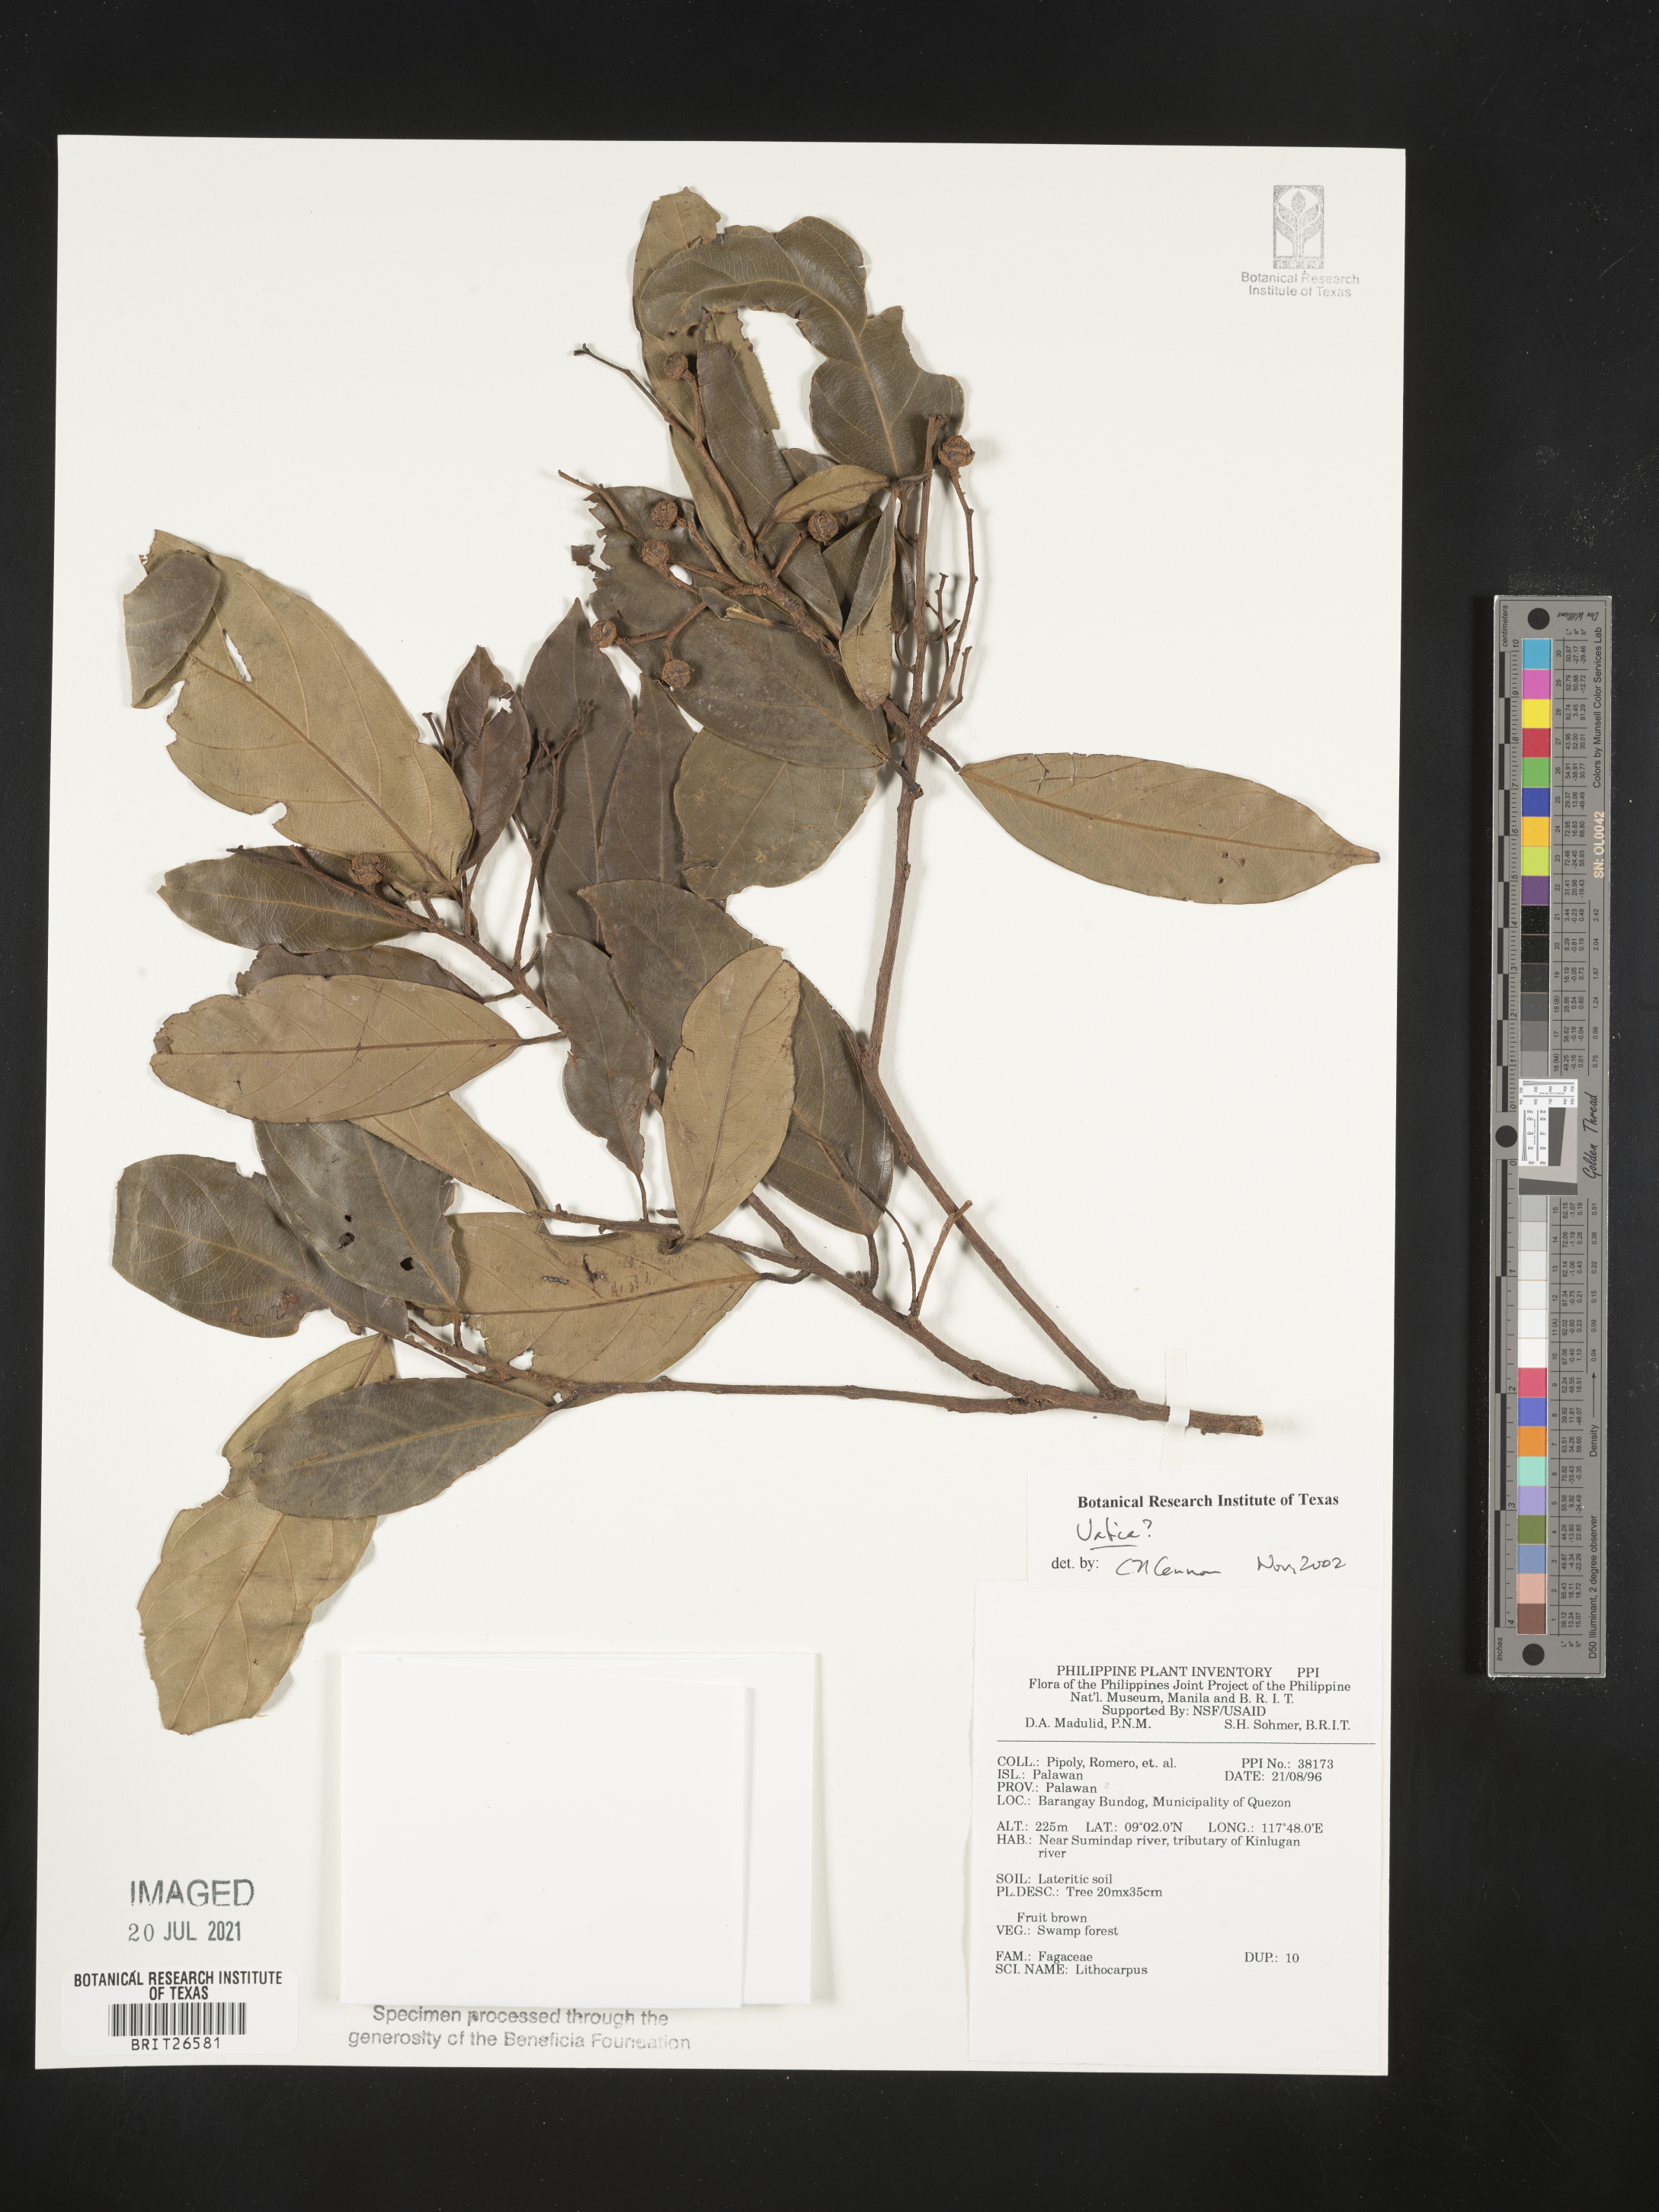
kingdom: Plantae
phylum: Tracheophyta
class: Magnoliopsida
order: Malvales
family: Dipterocarpaceae
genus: Vatica
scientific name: Vatica
